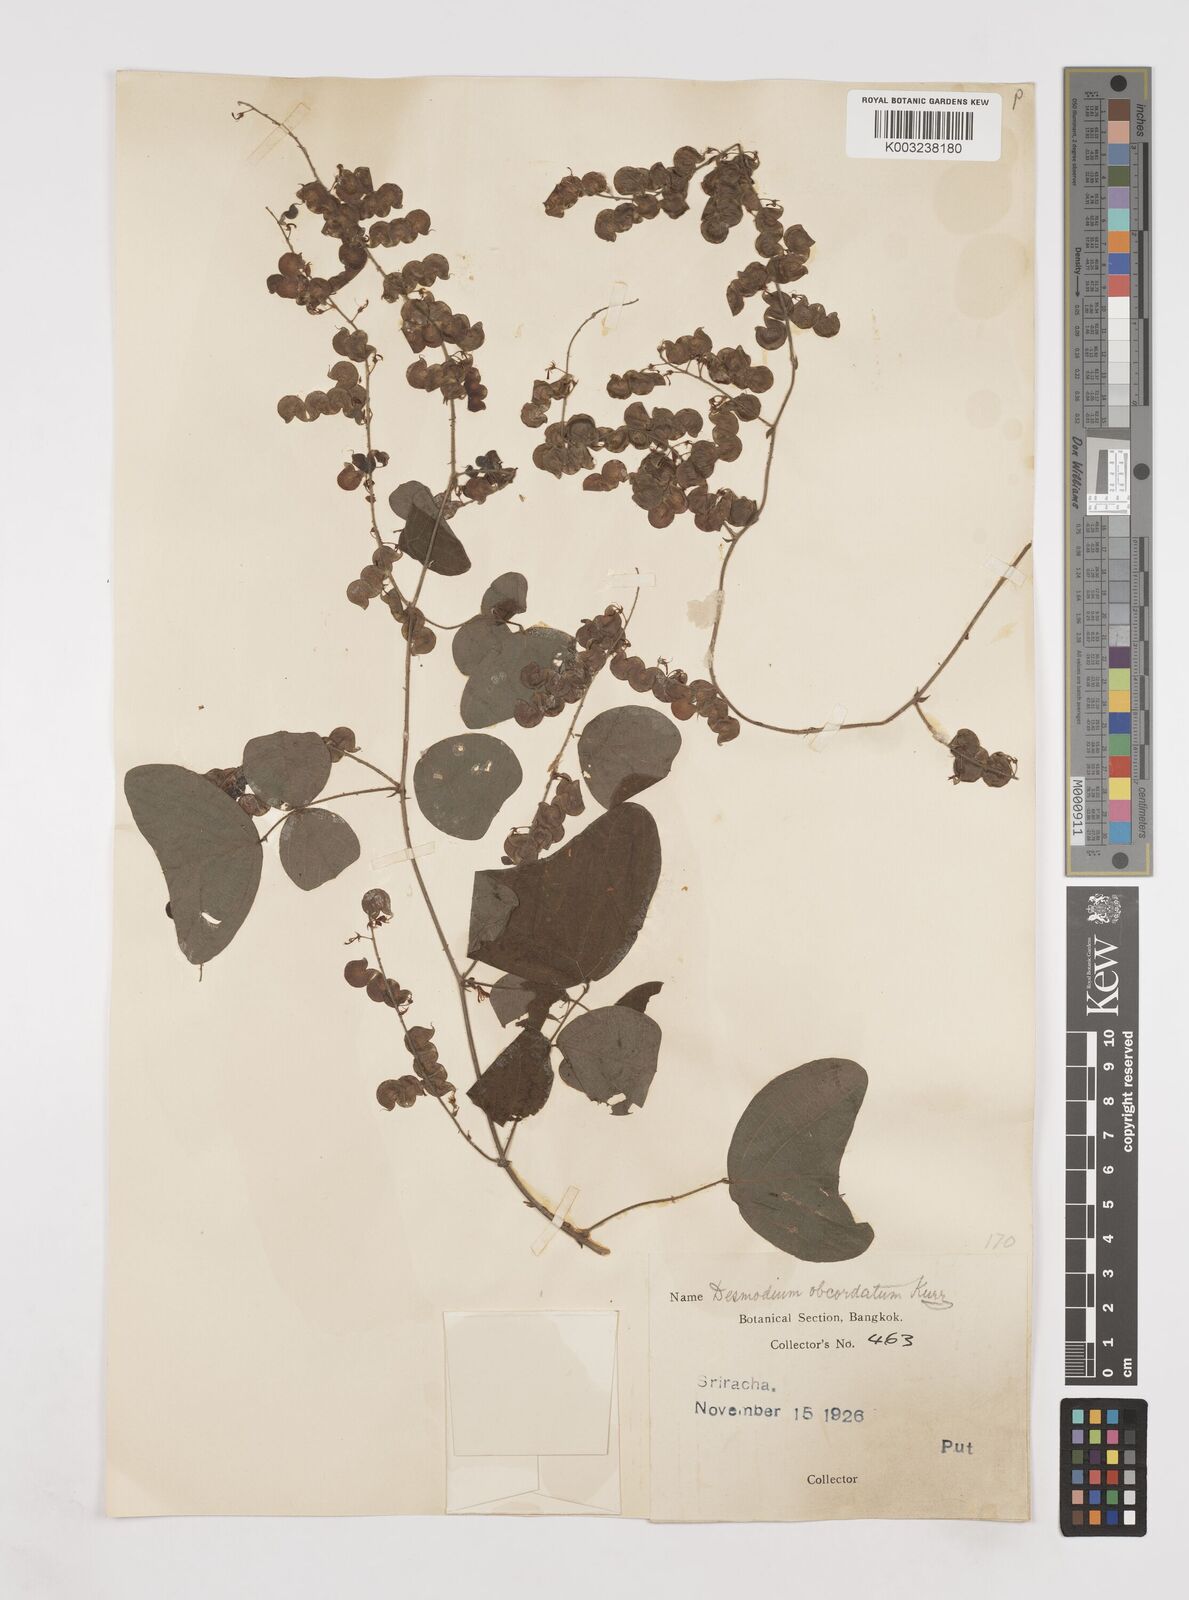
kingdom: Plantae
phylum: Tracheophyta
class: Magnoliopsida
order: Fabales
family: Fabaceae
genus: Hegnera
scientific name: Hegnera obcordata
